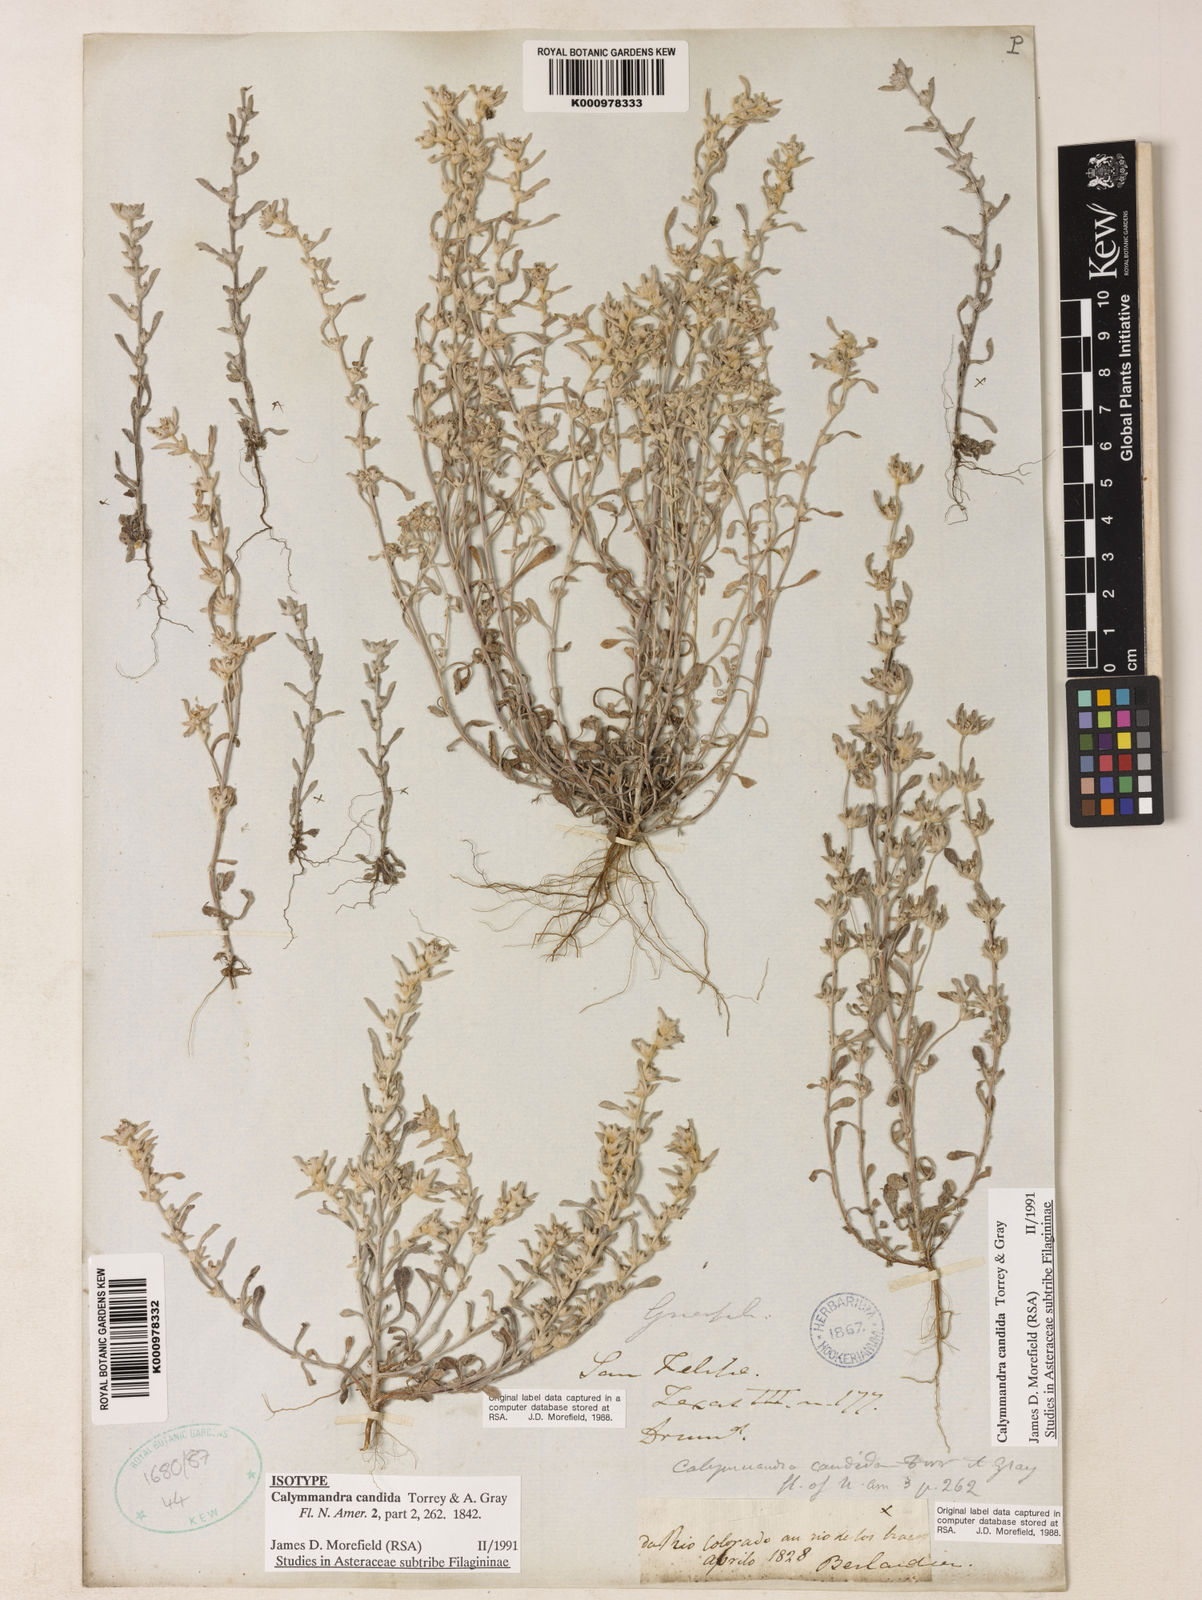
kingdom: Plantae
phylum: Tracheophyta
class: Magnoliopsida
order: Asterales
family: Asteraceae
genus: Diaperia
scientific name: Diaperia candida
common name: Silver rabbit-tobacco
